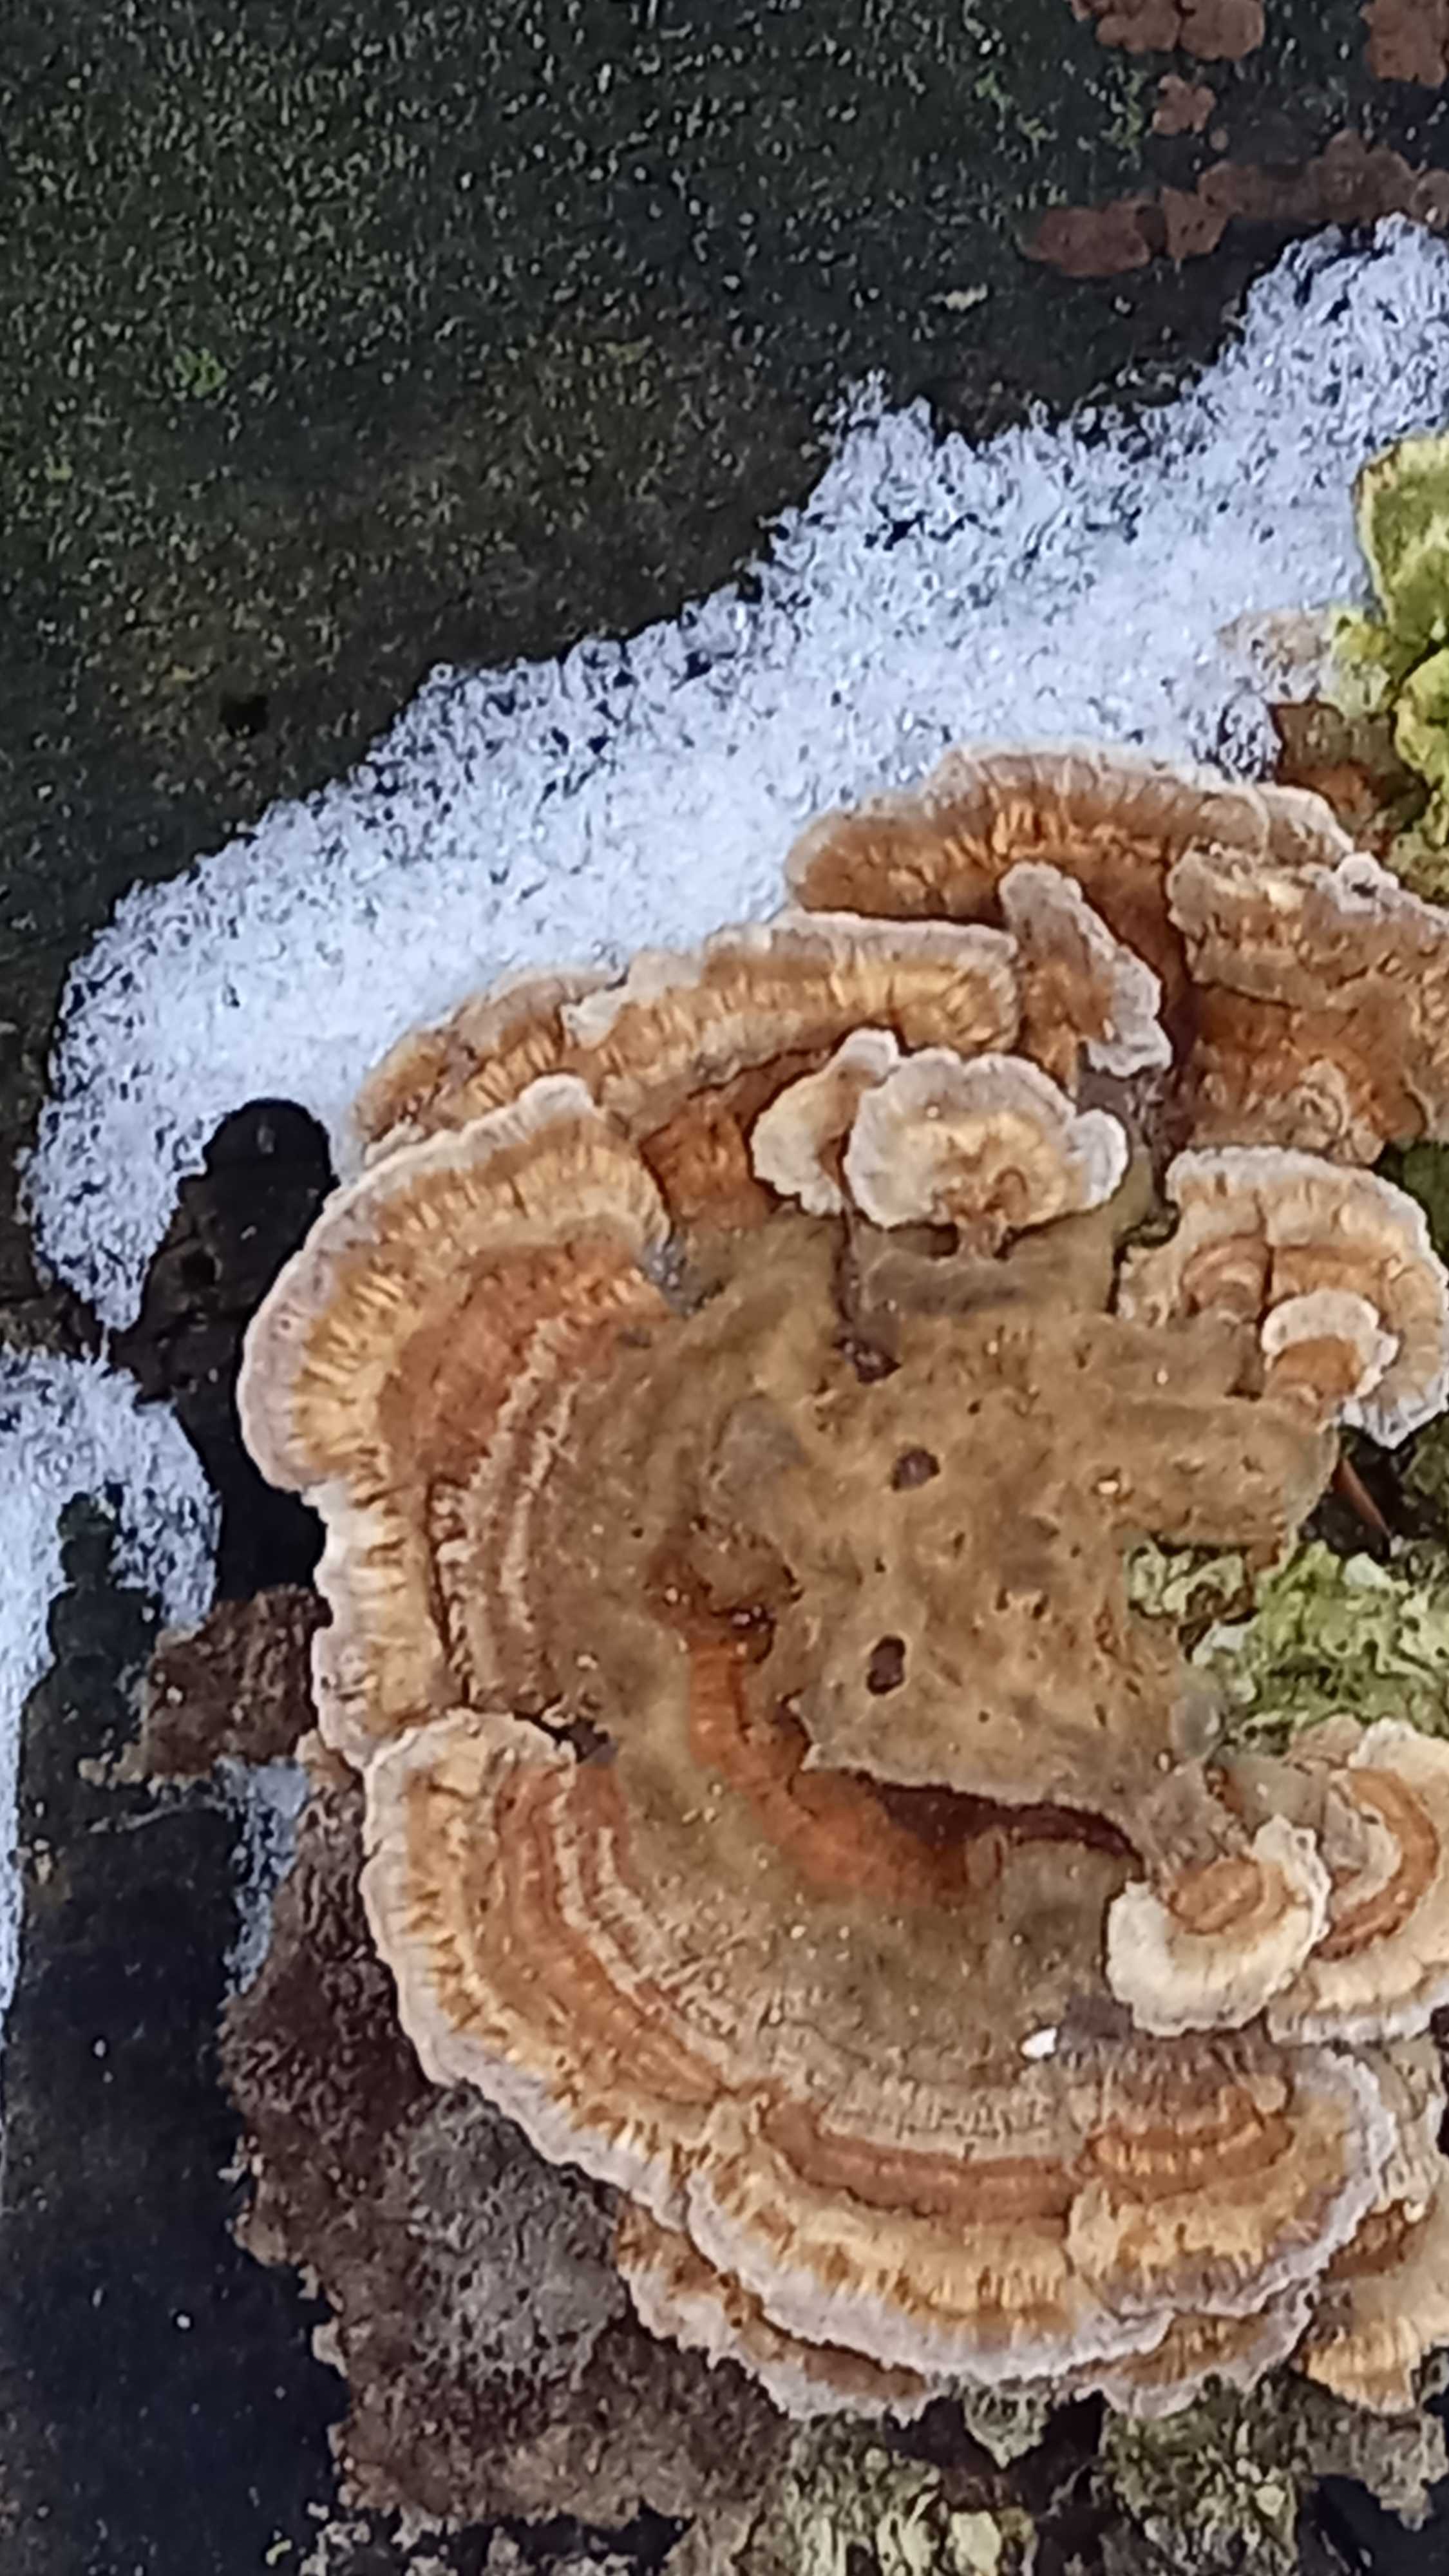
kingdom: Fungi
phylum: Basidiomycota
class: Agaricomycetes
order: Polyporales
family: Polyporaceae
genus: Trametes
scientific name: Trametes ochracea
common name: bæltet læderporesvamp
